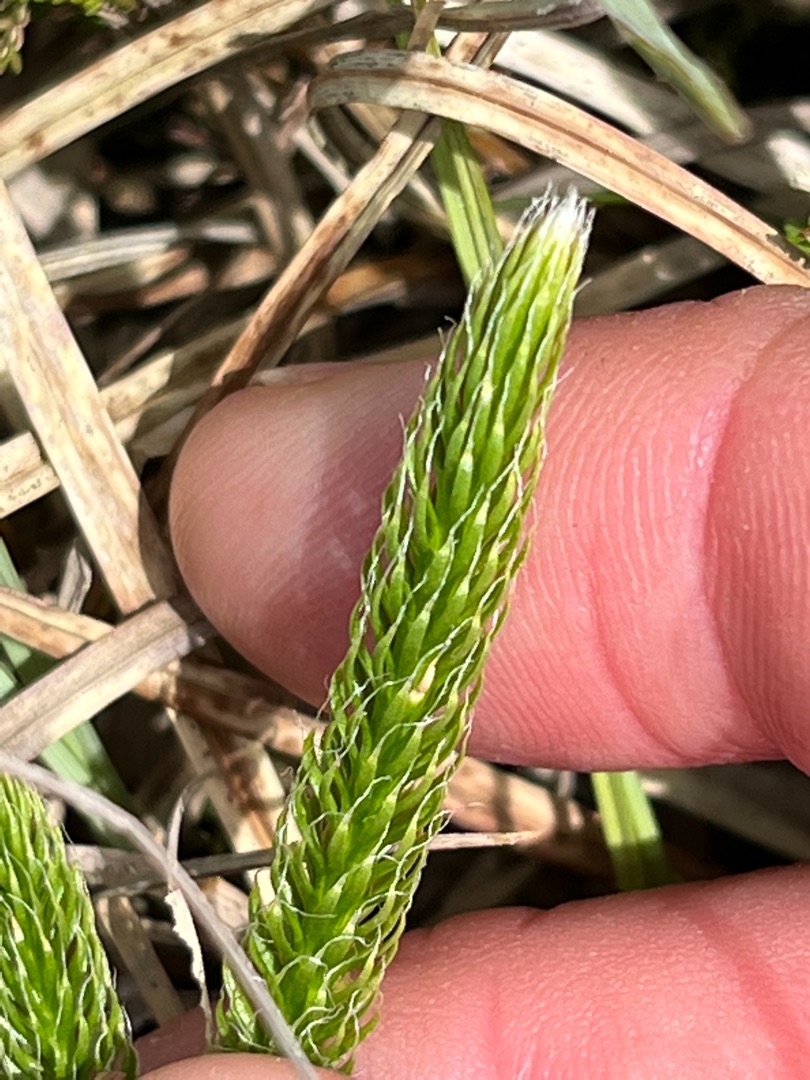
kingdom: Plantae
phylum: Tracheophyta
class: Lycopodiopsida
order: Lycopodiales
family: Lycopodiaceae
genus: Lycopodium
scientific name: Lycopodium clavatum
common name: Almindelig ulvefod
